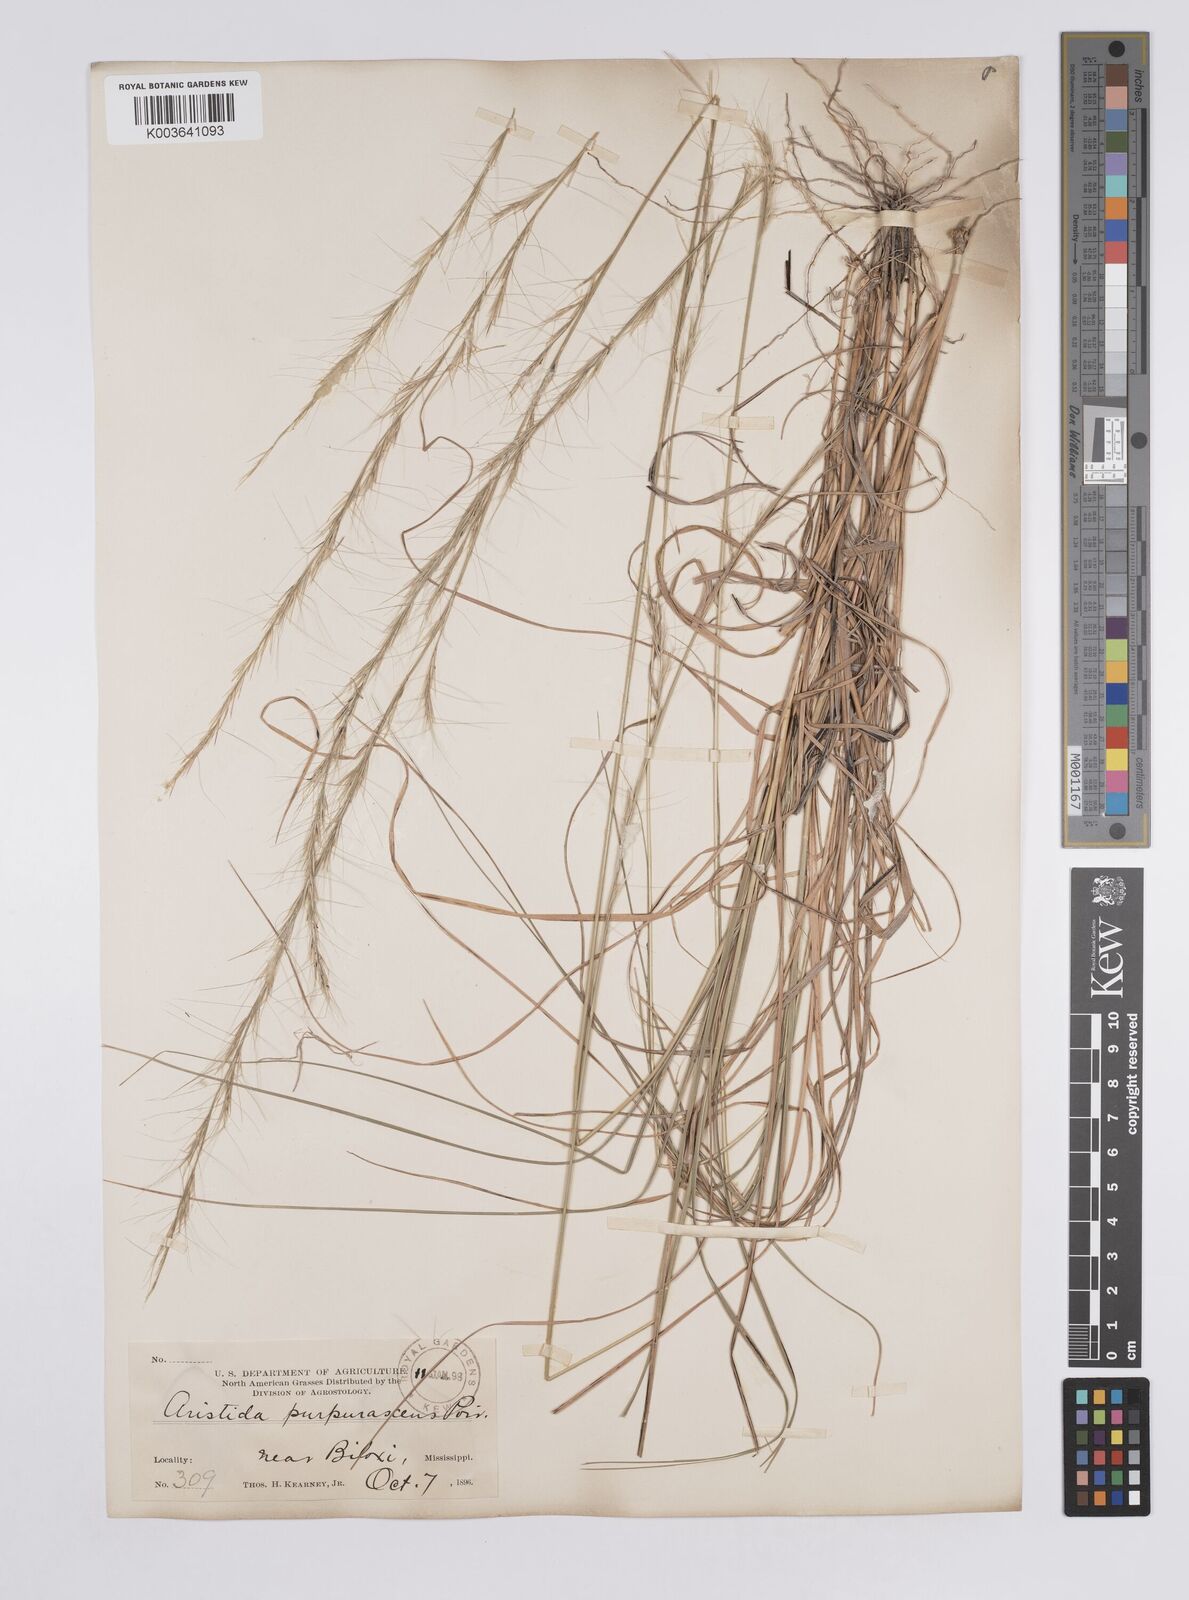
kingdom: Plantae
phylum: Tracheophyta
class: Liliopsida
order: Poales
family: Poaceae
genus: Aristida
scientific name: Aristida purpurascens
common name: Arrow-feather
